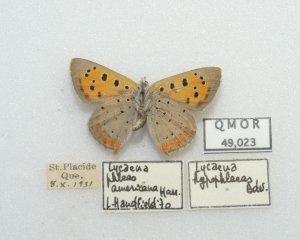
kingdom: Animalia
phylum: Arthropoda
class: Insecta
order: Lepidoptera
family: Lycaenidae
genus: Lycaena
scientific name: Lycaena phlaeas
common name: American Copper
